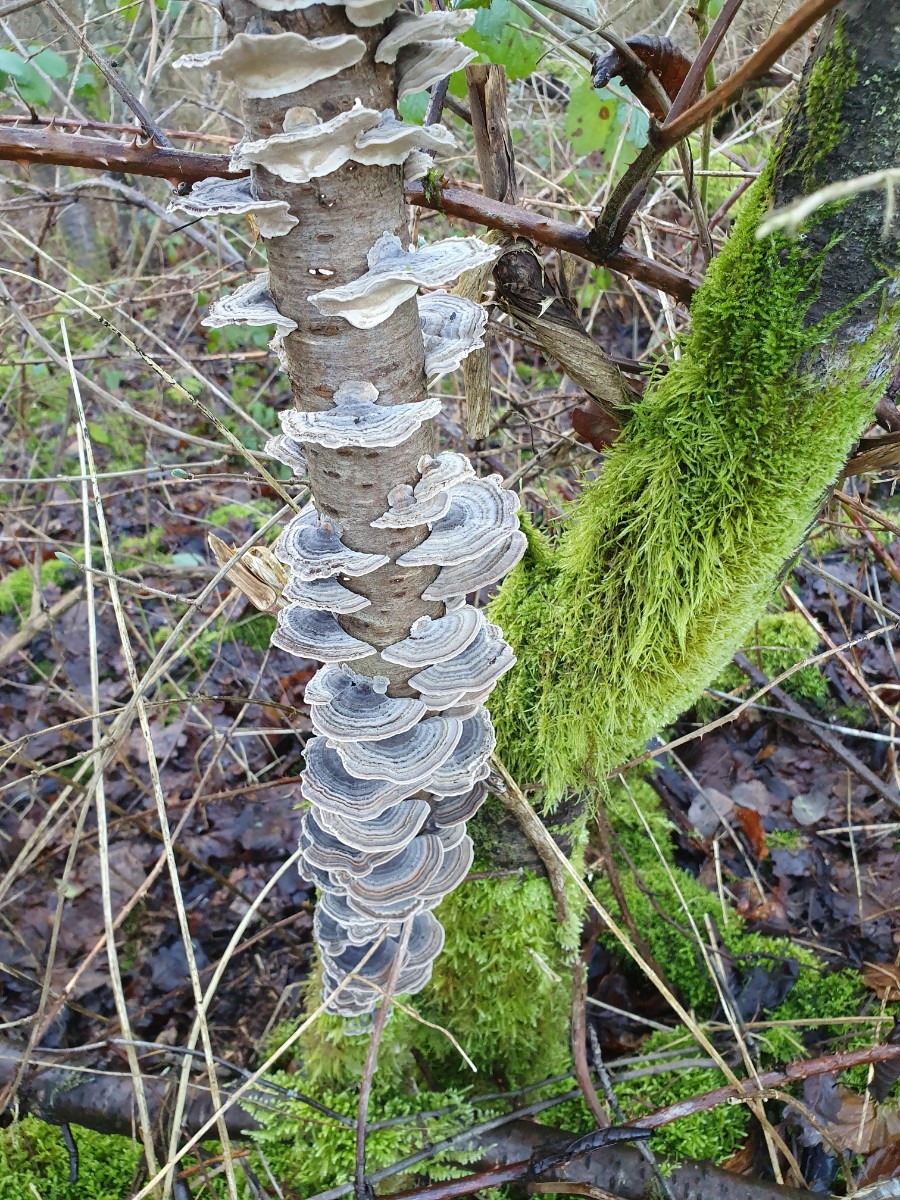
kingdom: Fungi
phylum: Basidiomycota
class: Agaricomycetes
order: Polyporales
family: Polyporaceae
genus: Trametes
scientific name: Trametes versicolor
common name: broget læderporesvamp
